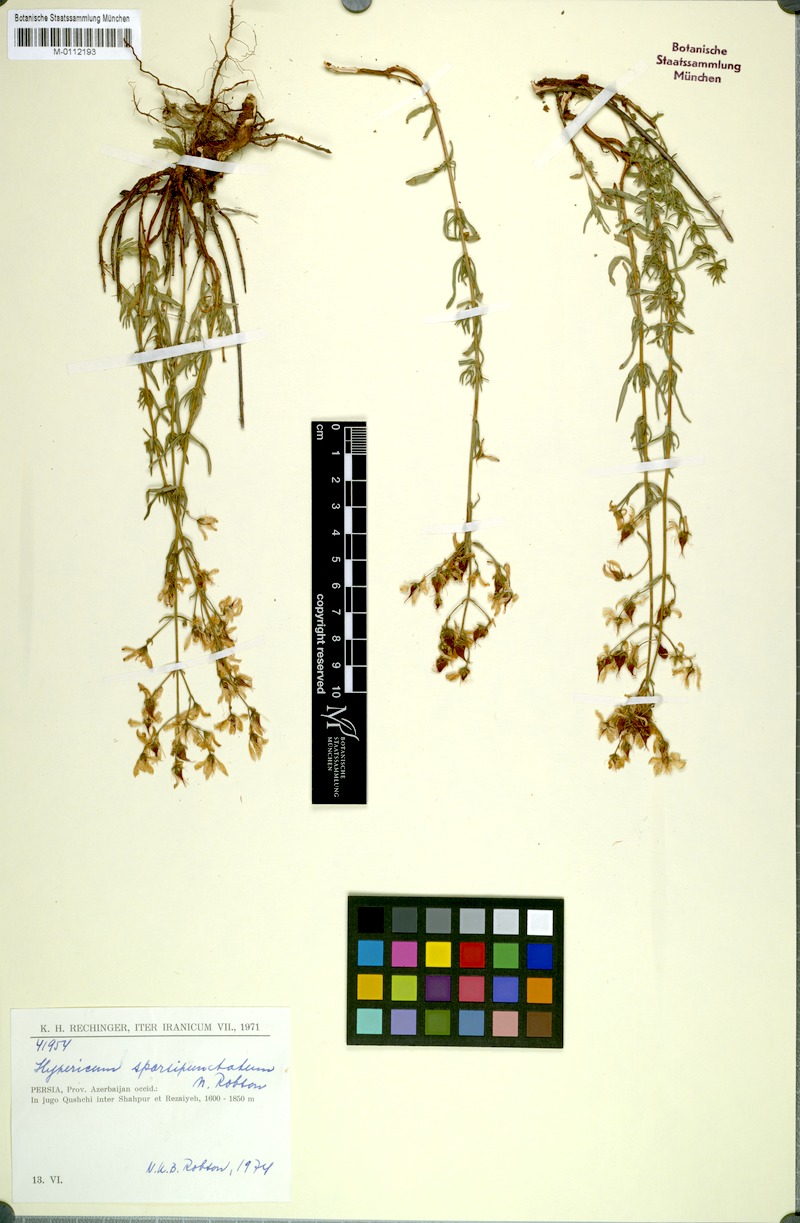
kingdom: Plantae
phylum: Tracheophyta
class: Magnoliopsida
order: Malpighiales
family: Hypericaceae
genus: Hypericum
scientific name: Hypericum
